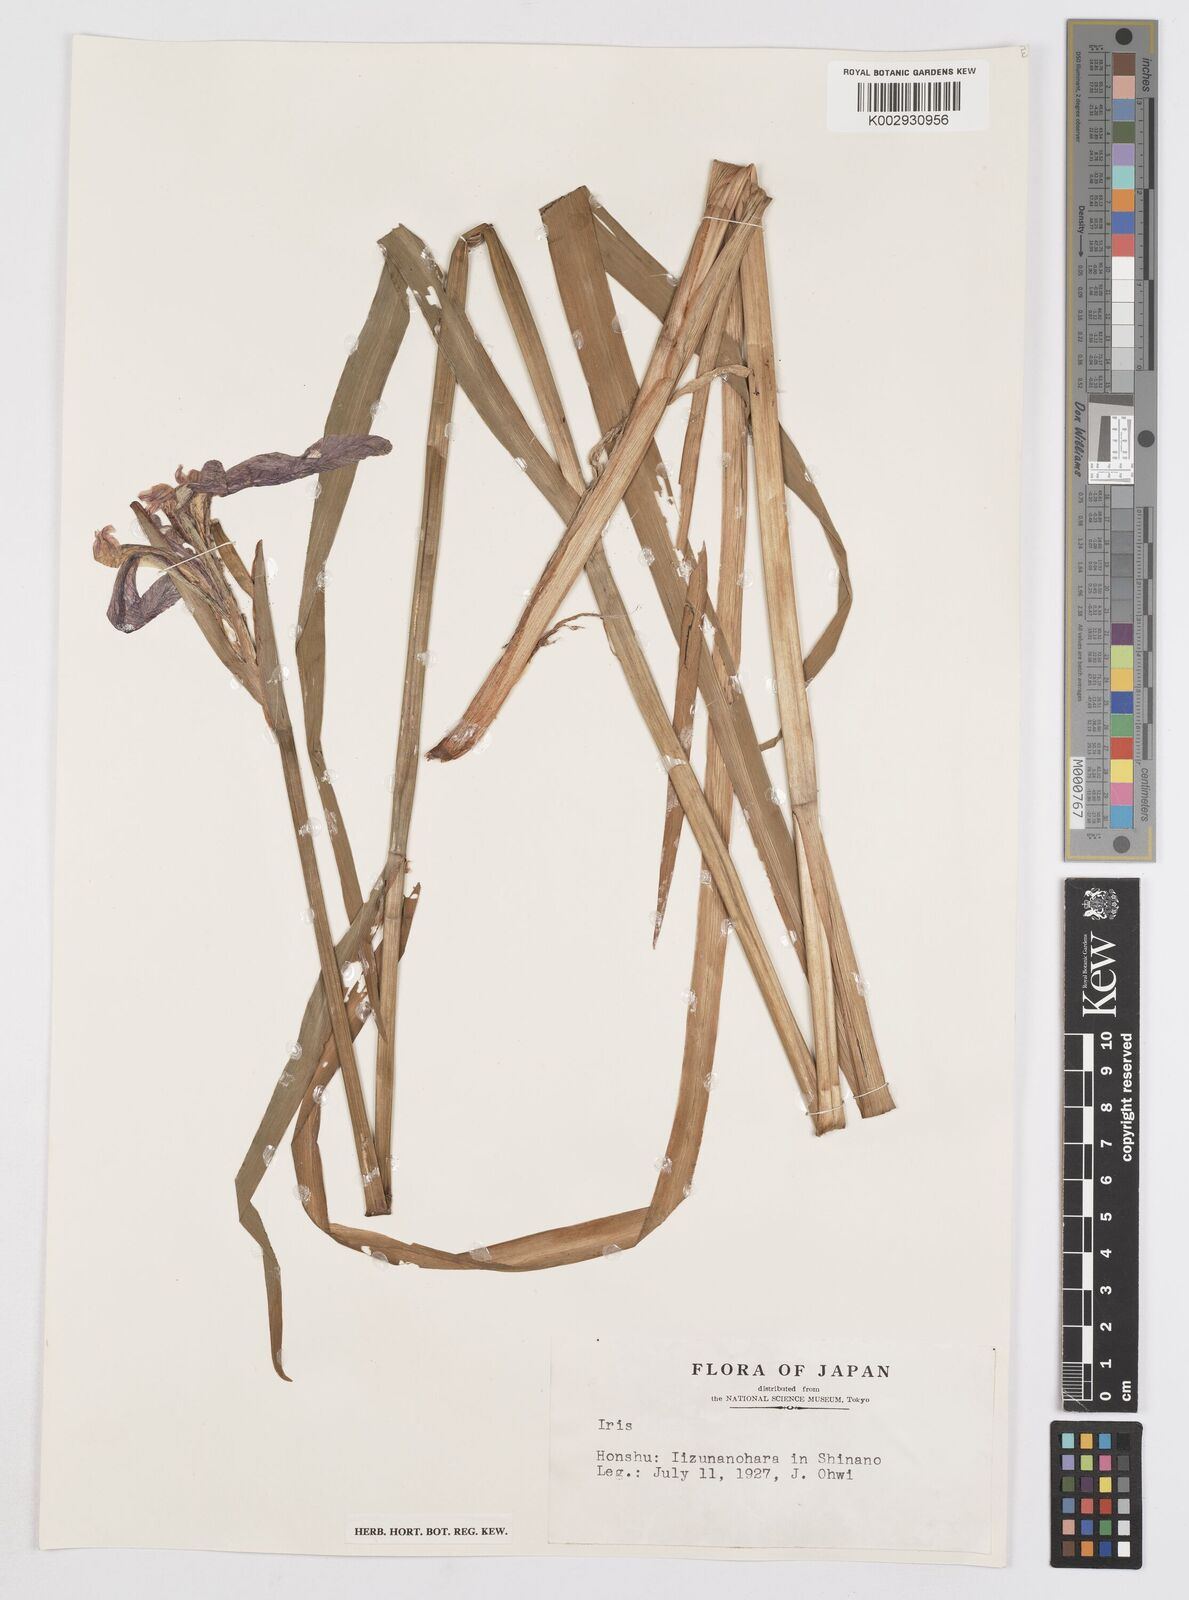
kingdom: Plantae
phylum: Tracheophyta
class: Liliopsida
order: Asparagales
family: Iridaceae
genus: Iris
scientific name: Iris
